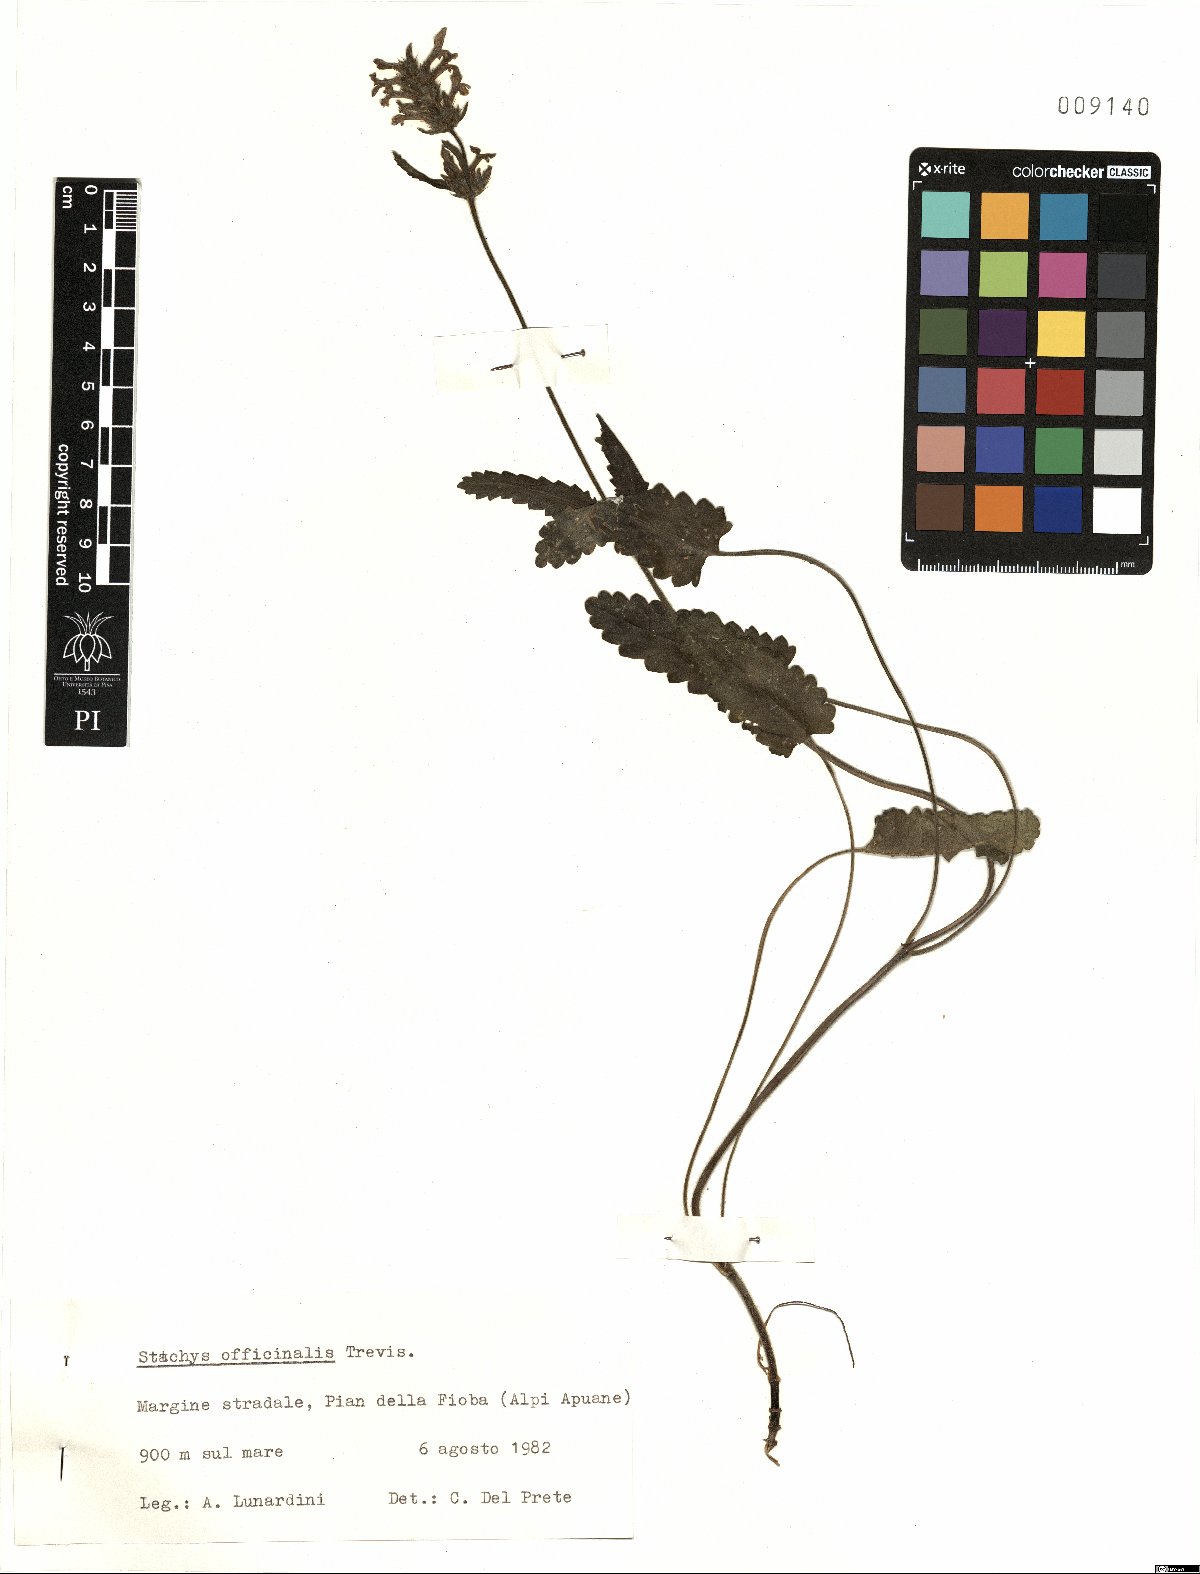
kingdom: Plantae
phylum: Tracheophyta
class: Magnoliopsida
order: Lamiales
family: Lamiaceae
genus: Betonica
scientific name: Betonica officinalis
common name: Bishop's-wort
